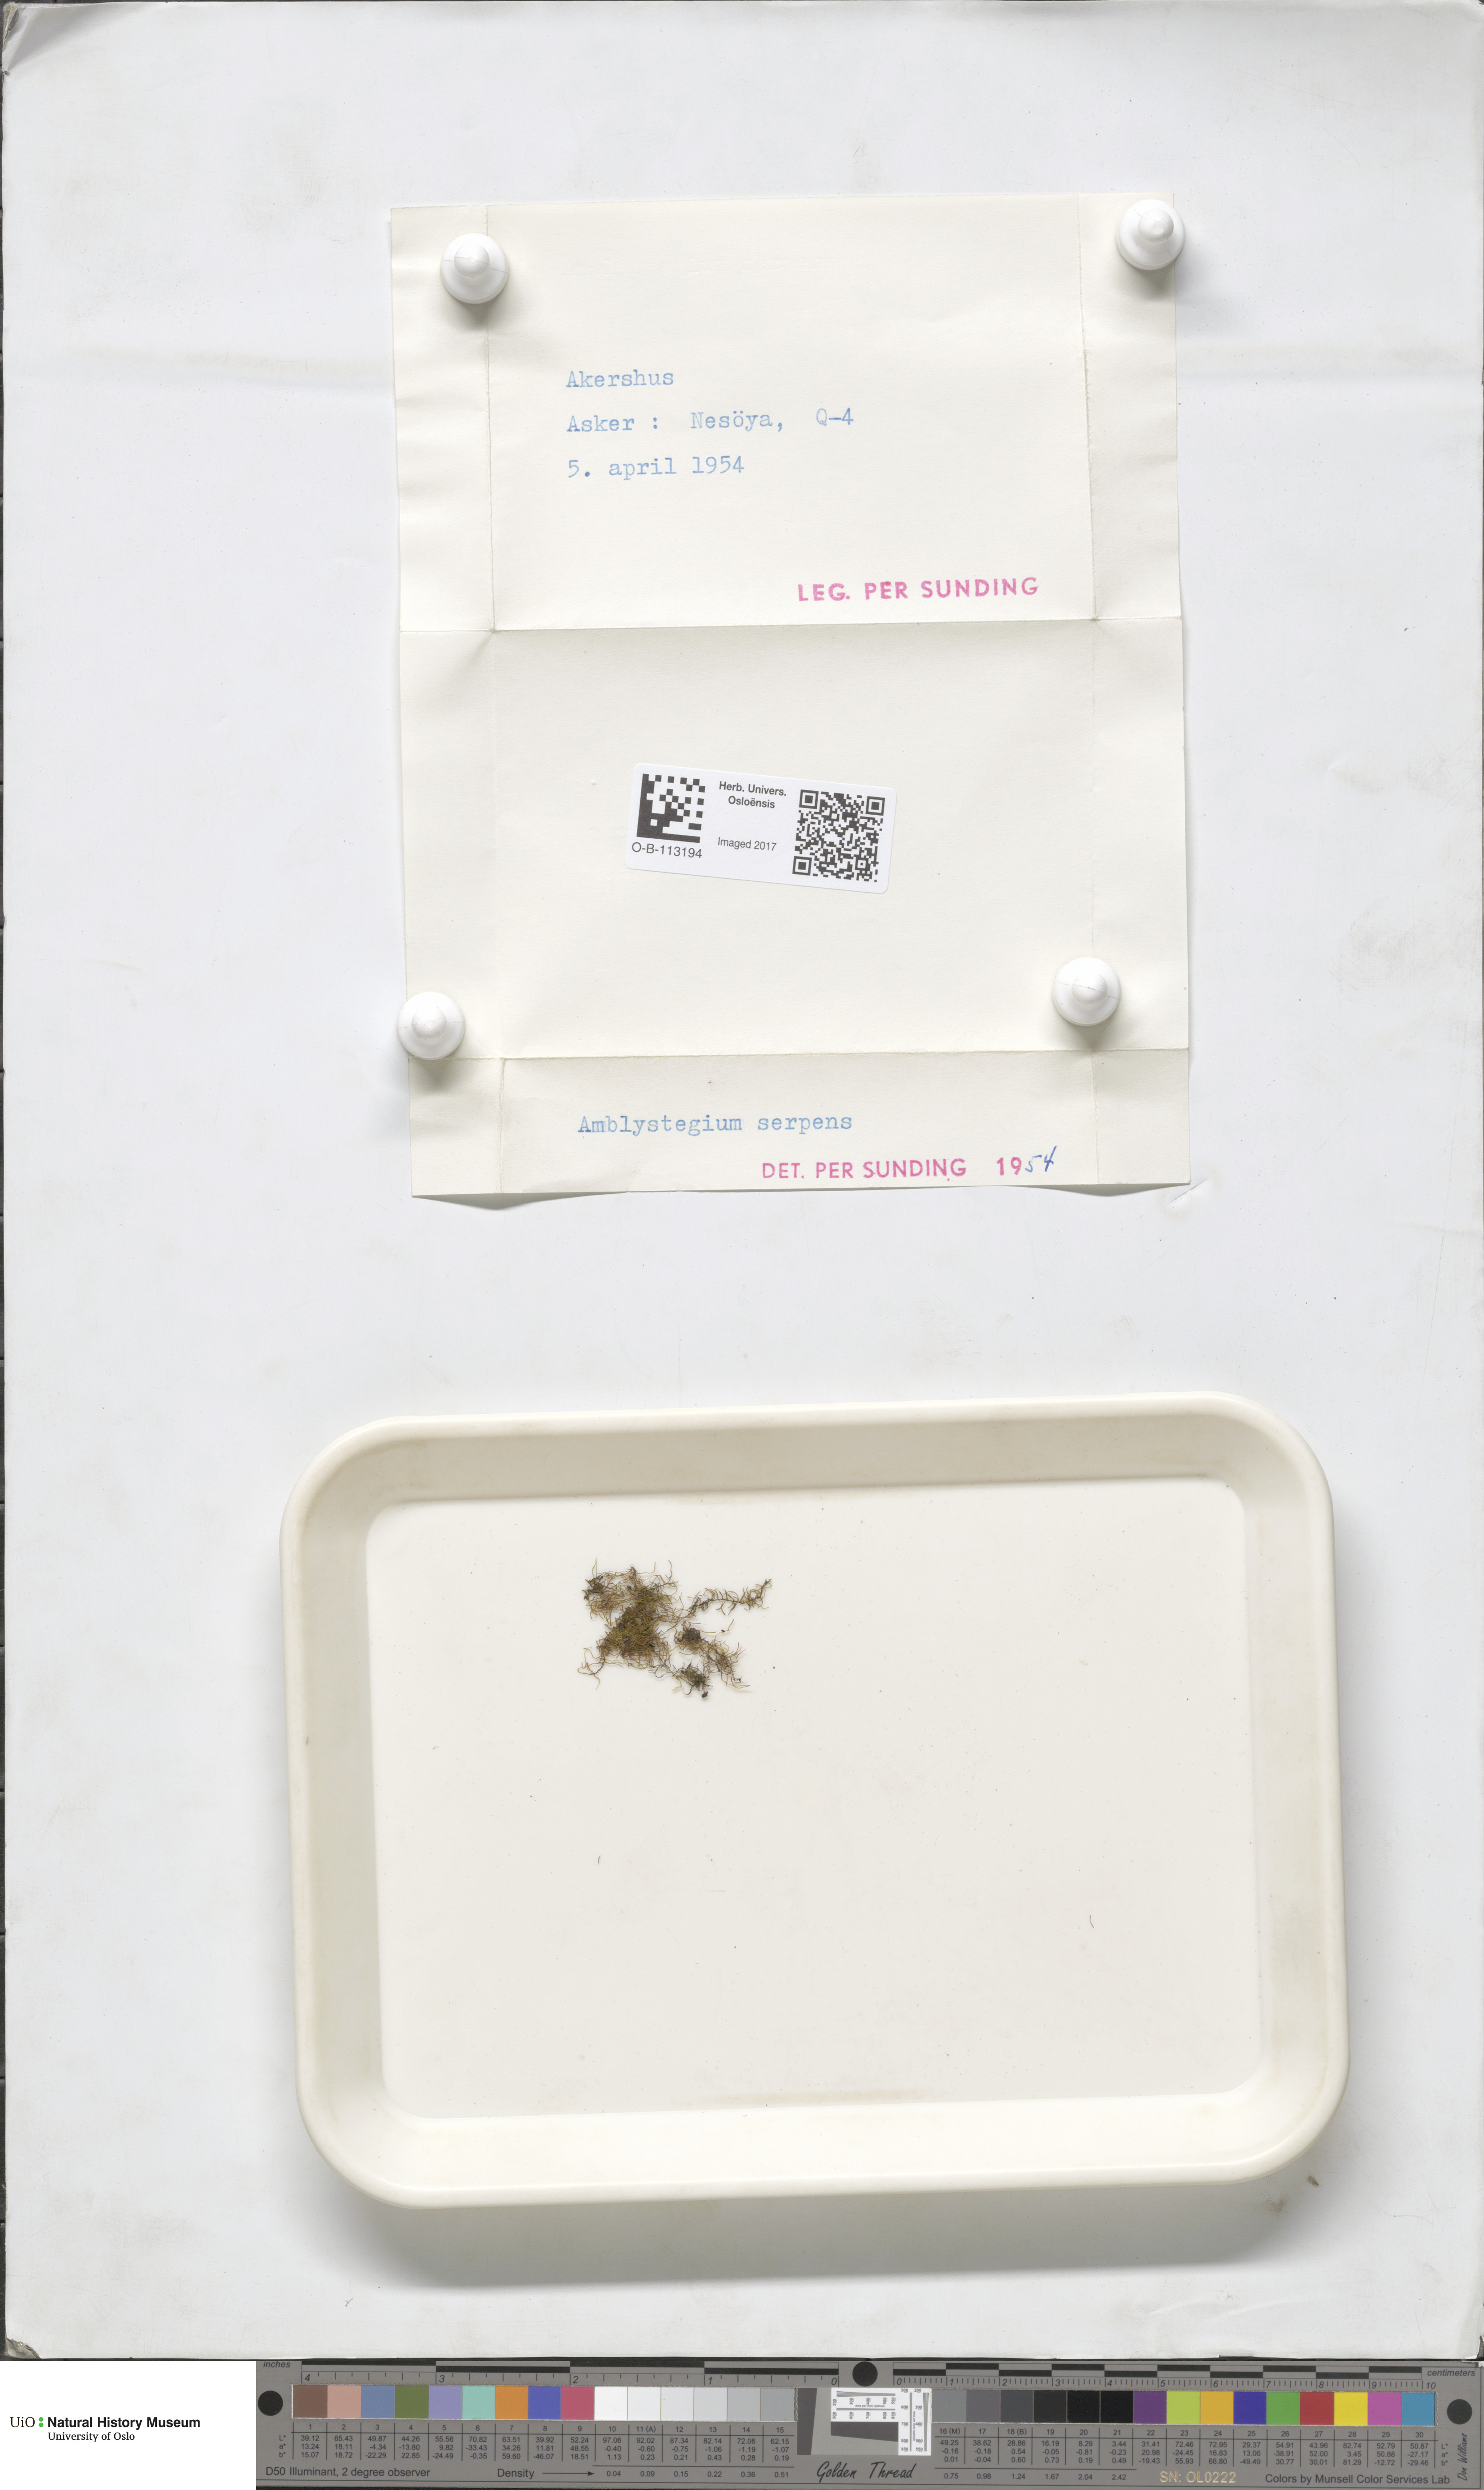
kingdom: Plantae
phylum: Bryophyta
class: Bryopsida
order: Hypnales
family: Amblystegiaceae
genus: Amblystegium
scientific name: Amblystegium serpens
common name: Jurkatzka's feather moss
